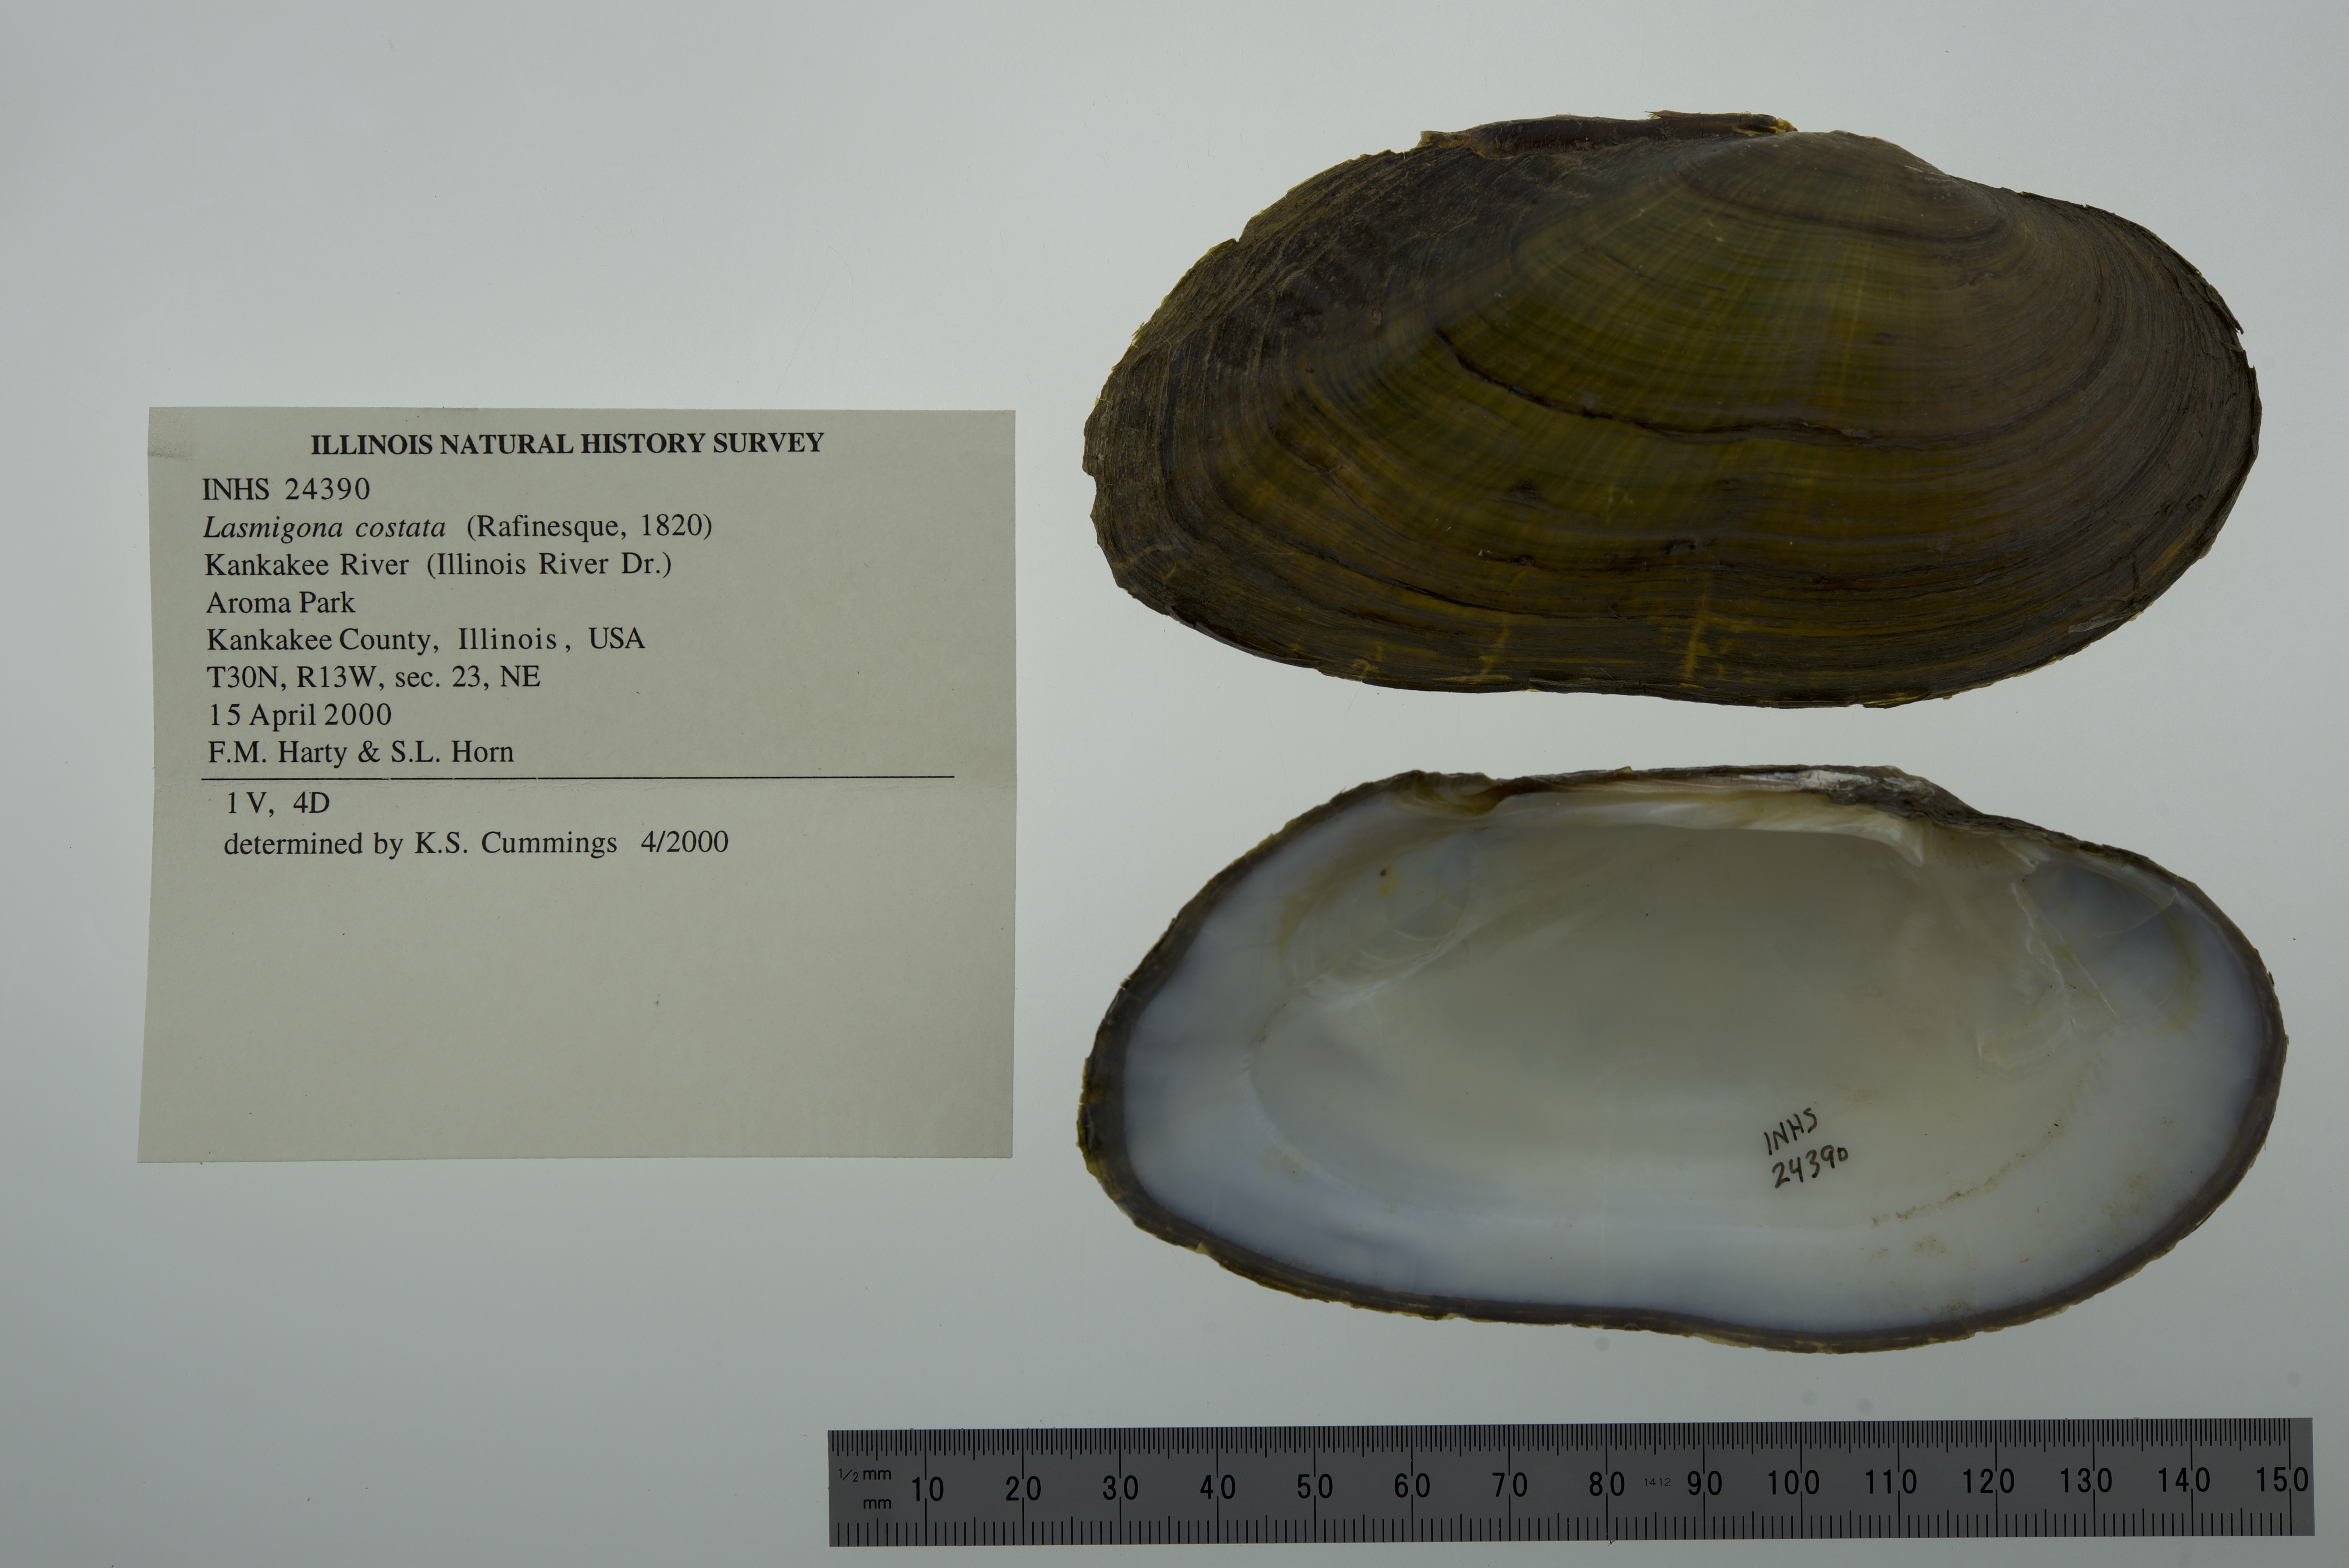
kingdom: Animalia
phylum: Mollusca
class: Bivalvia
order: Unionida
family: Unionidae
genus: Lasmigona
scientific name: Lasmigona costata
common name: Flutedshell
